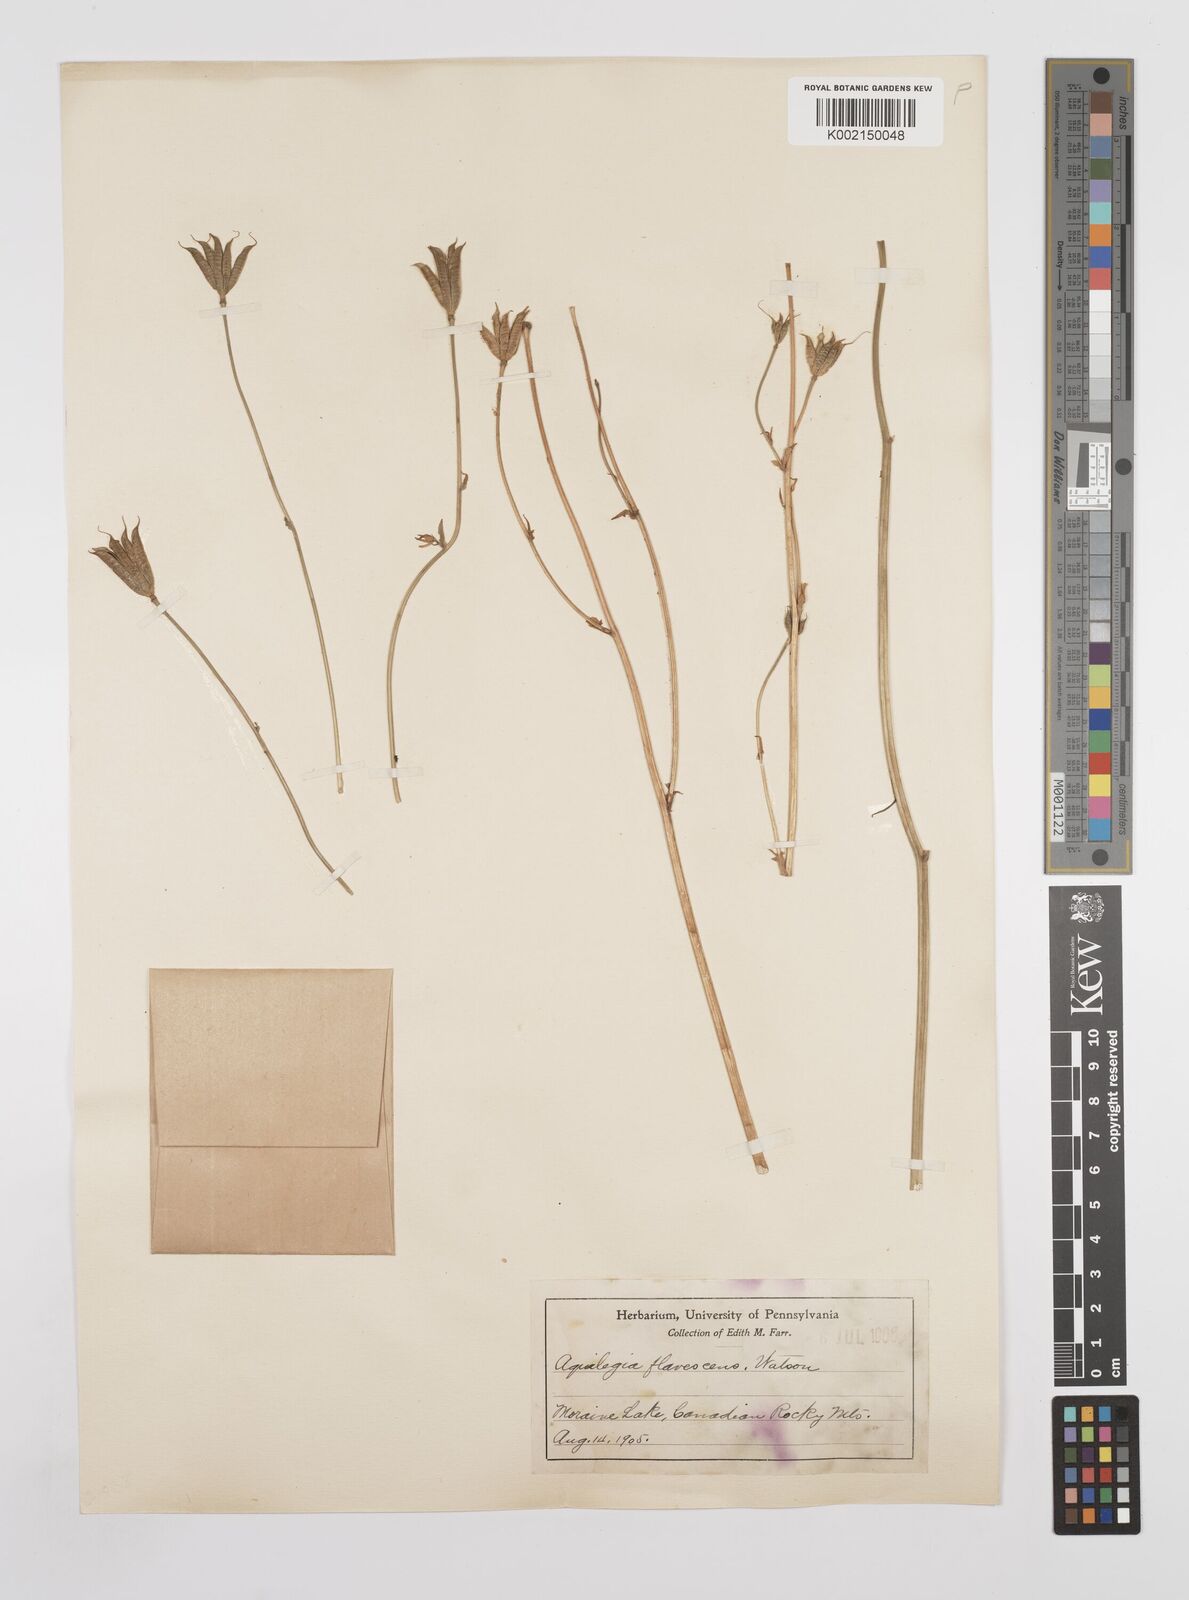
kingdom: Plantae
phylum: Tracheophyta
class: Magnoliopsida
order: Ranunculales
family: Ranunculaceae
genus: Aquilegia
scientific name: Aquilegia flavescens
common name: Yellow columbine
